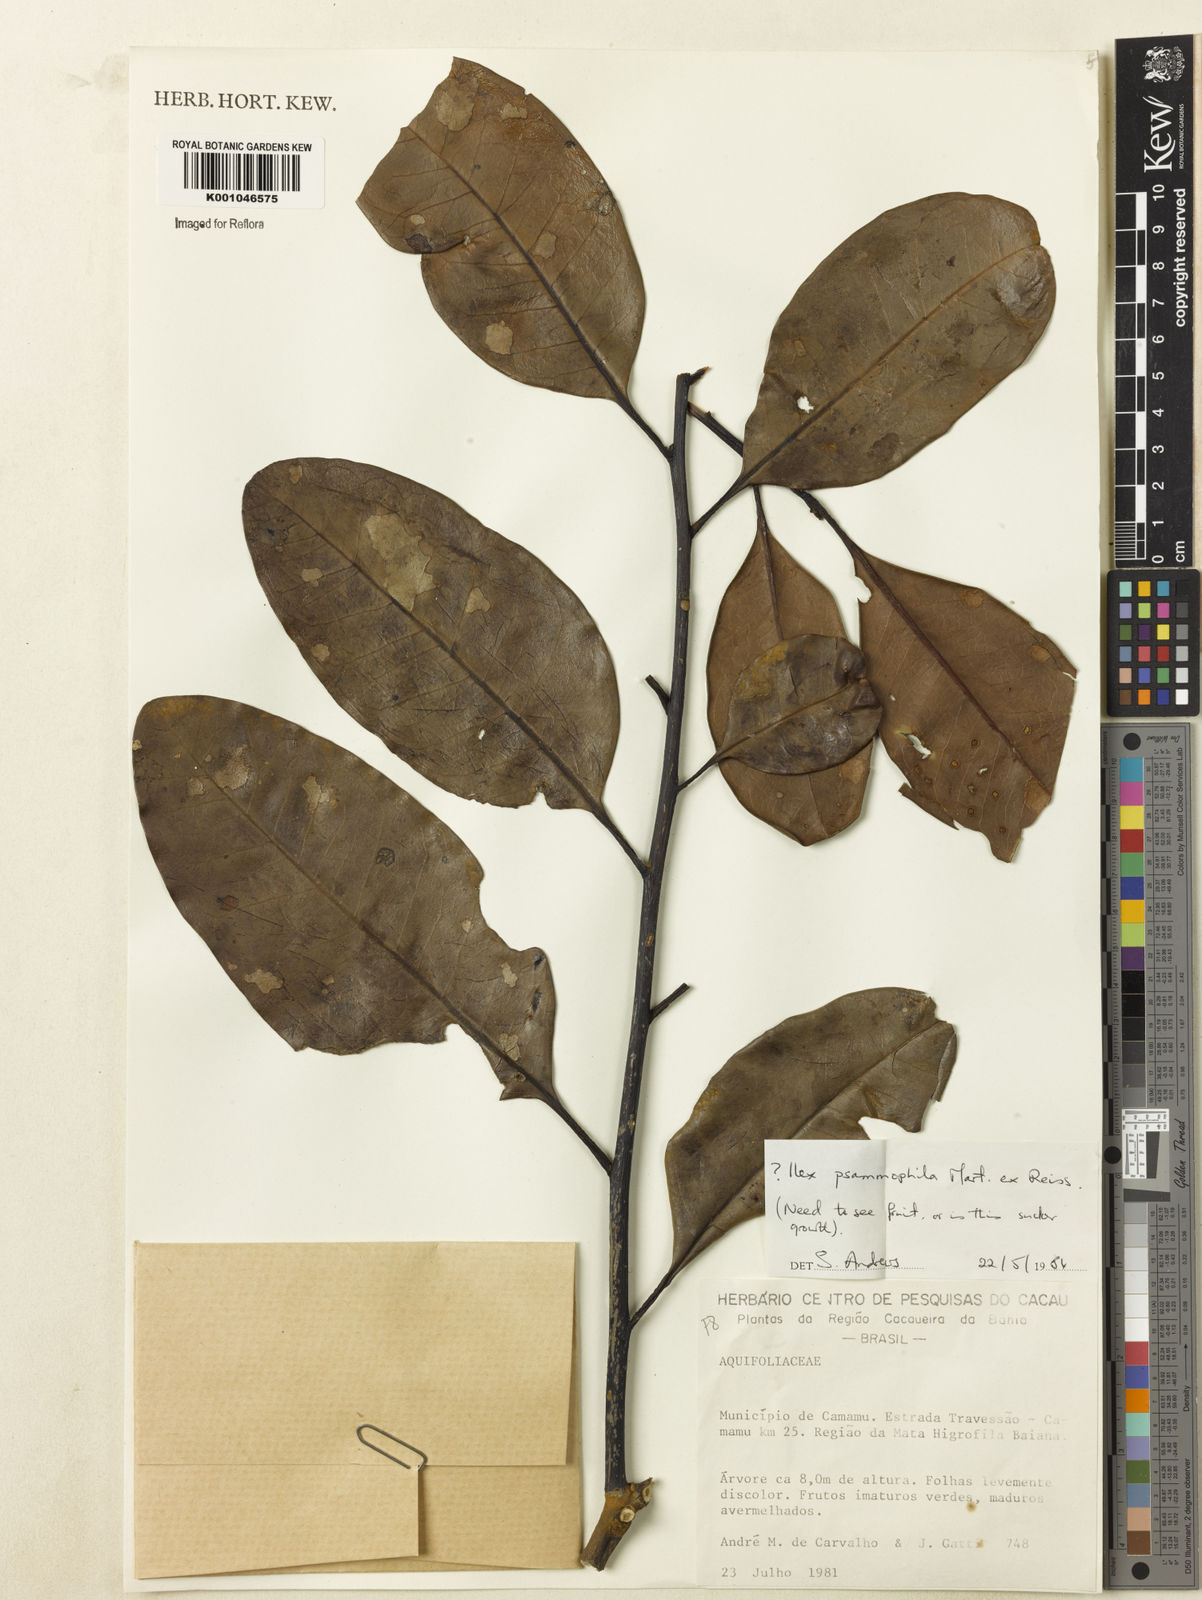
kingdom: Plantae
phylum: Tracheophyta
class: Magnoliopsida
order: Aquifoliales
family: Aquifoliaceae
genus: Ilex
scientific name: Ilex psammophila
